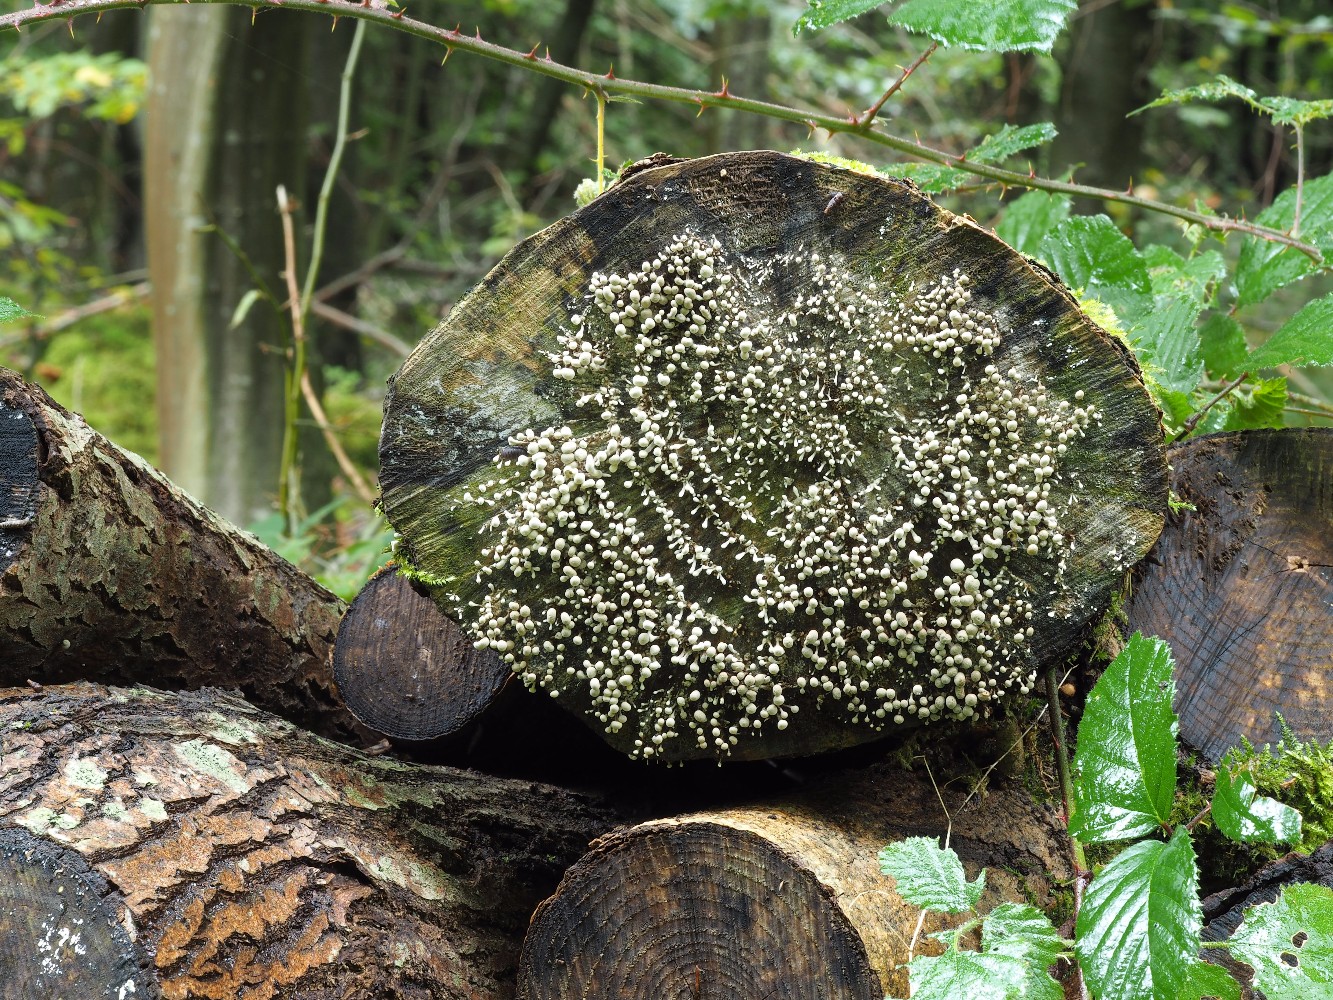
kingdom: Fungi
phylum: Basidiomycota
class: Atractiellomycetes
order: Atractiellales
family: Phleogenaceae
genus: Phleogena
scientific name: Phleogena faginea
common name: pudderkølle
